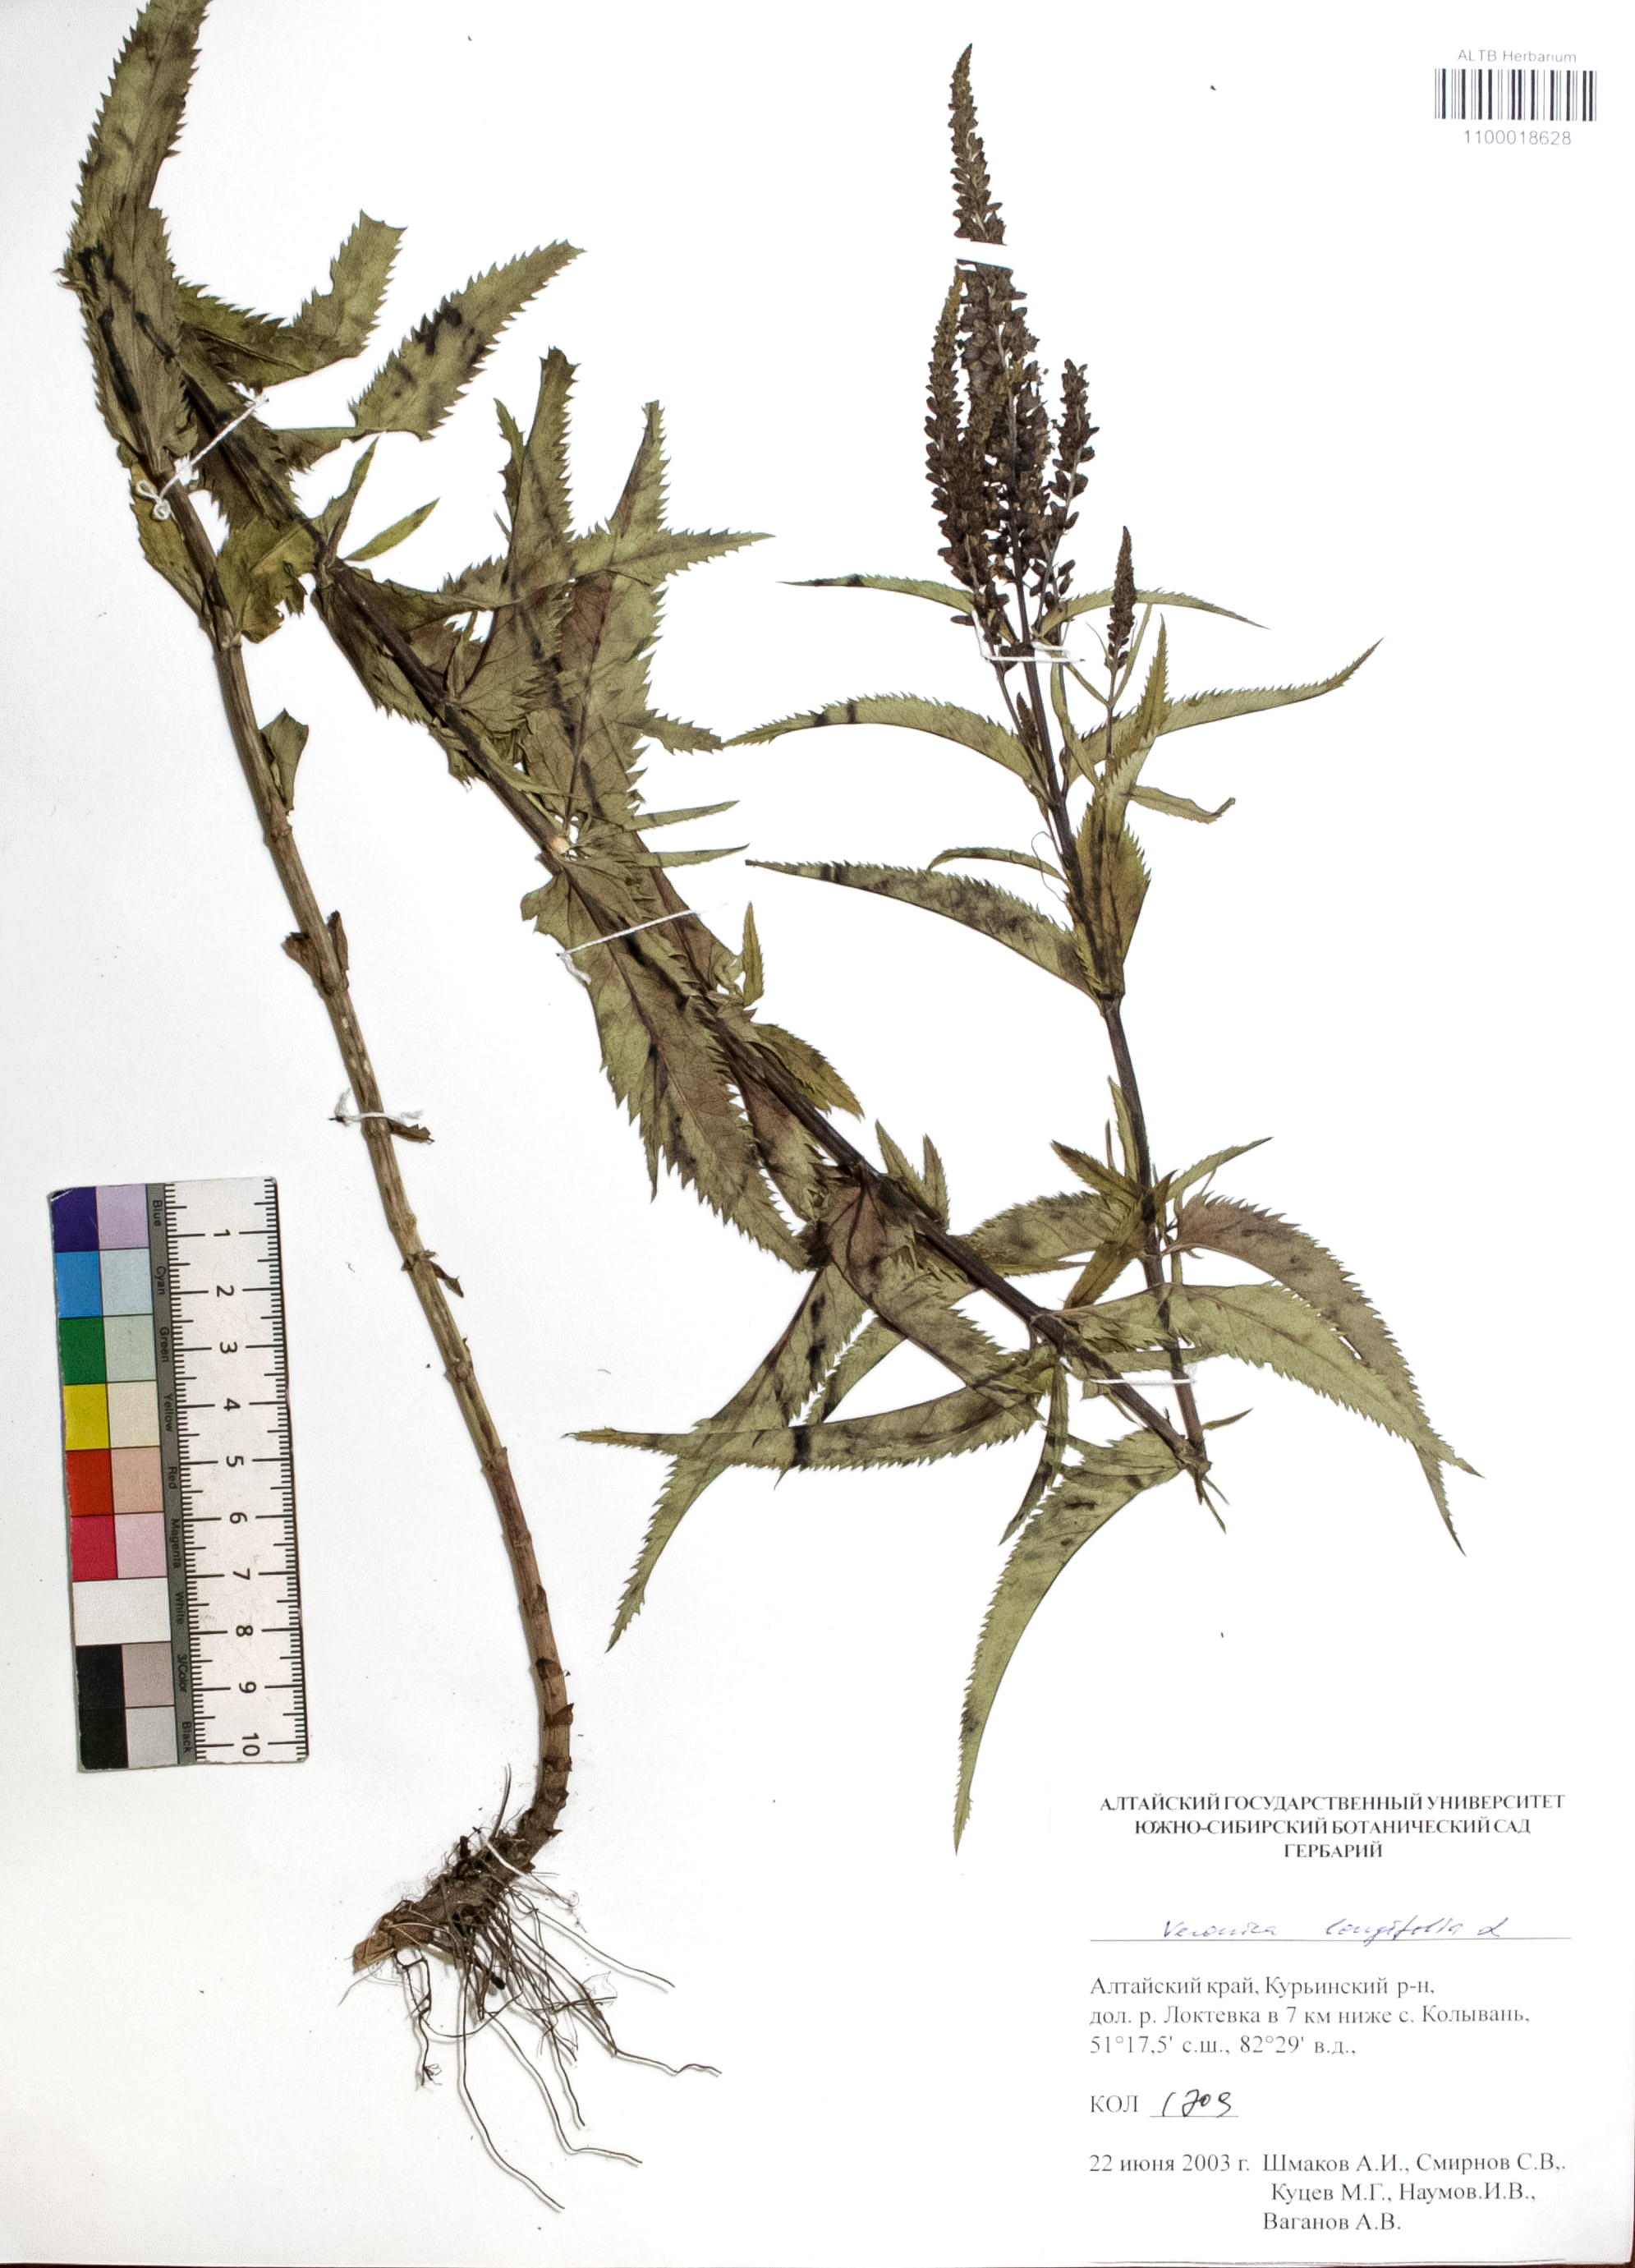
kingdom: Plantae
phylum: Tracheophyta
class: Magnoliopsida
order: Lamiales
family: Plantaginaceae
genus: Veronica
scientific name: Veronica longifolia
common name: Garden speedwell
